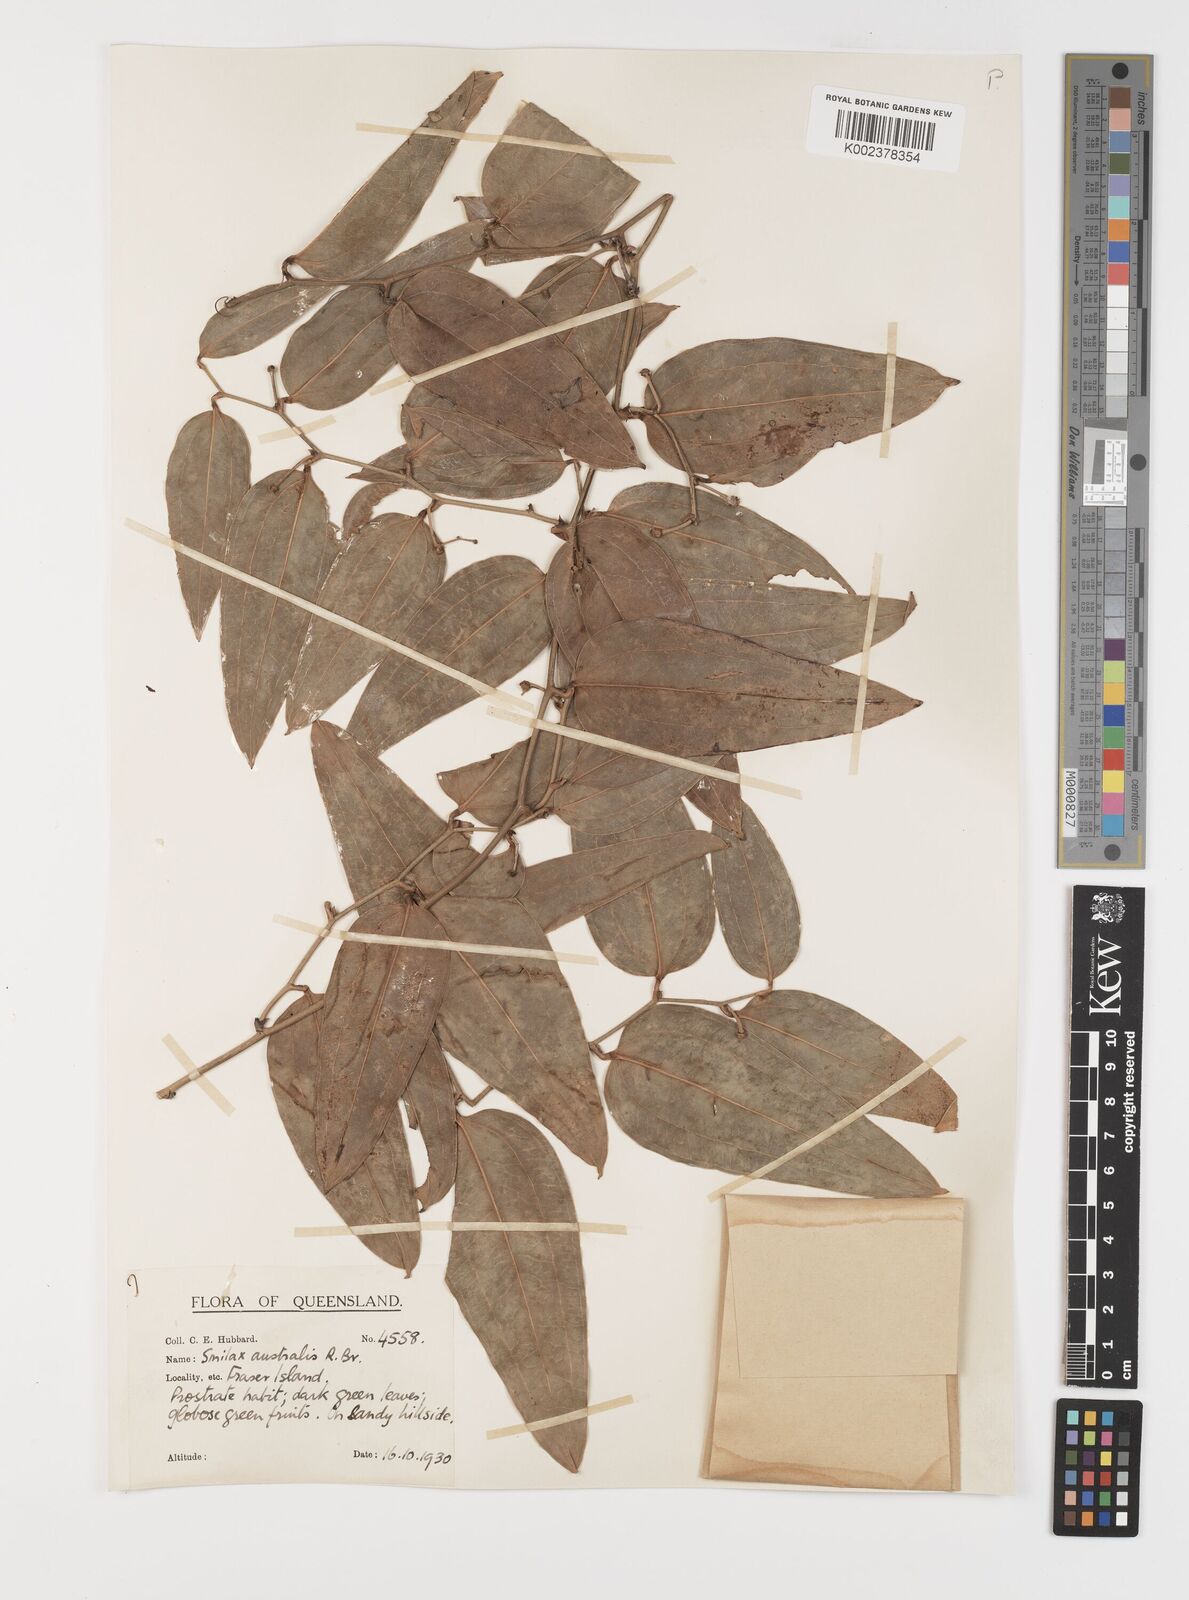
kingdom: Plantae
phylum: Tracheophyta
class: Liliopsida
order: Liliales
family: Smilacaceae
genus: Smilax
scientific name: Smilax australis
